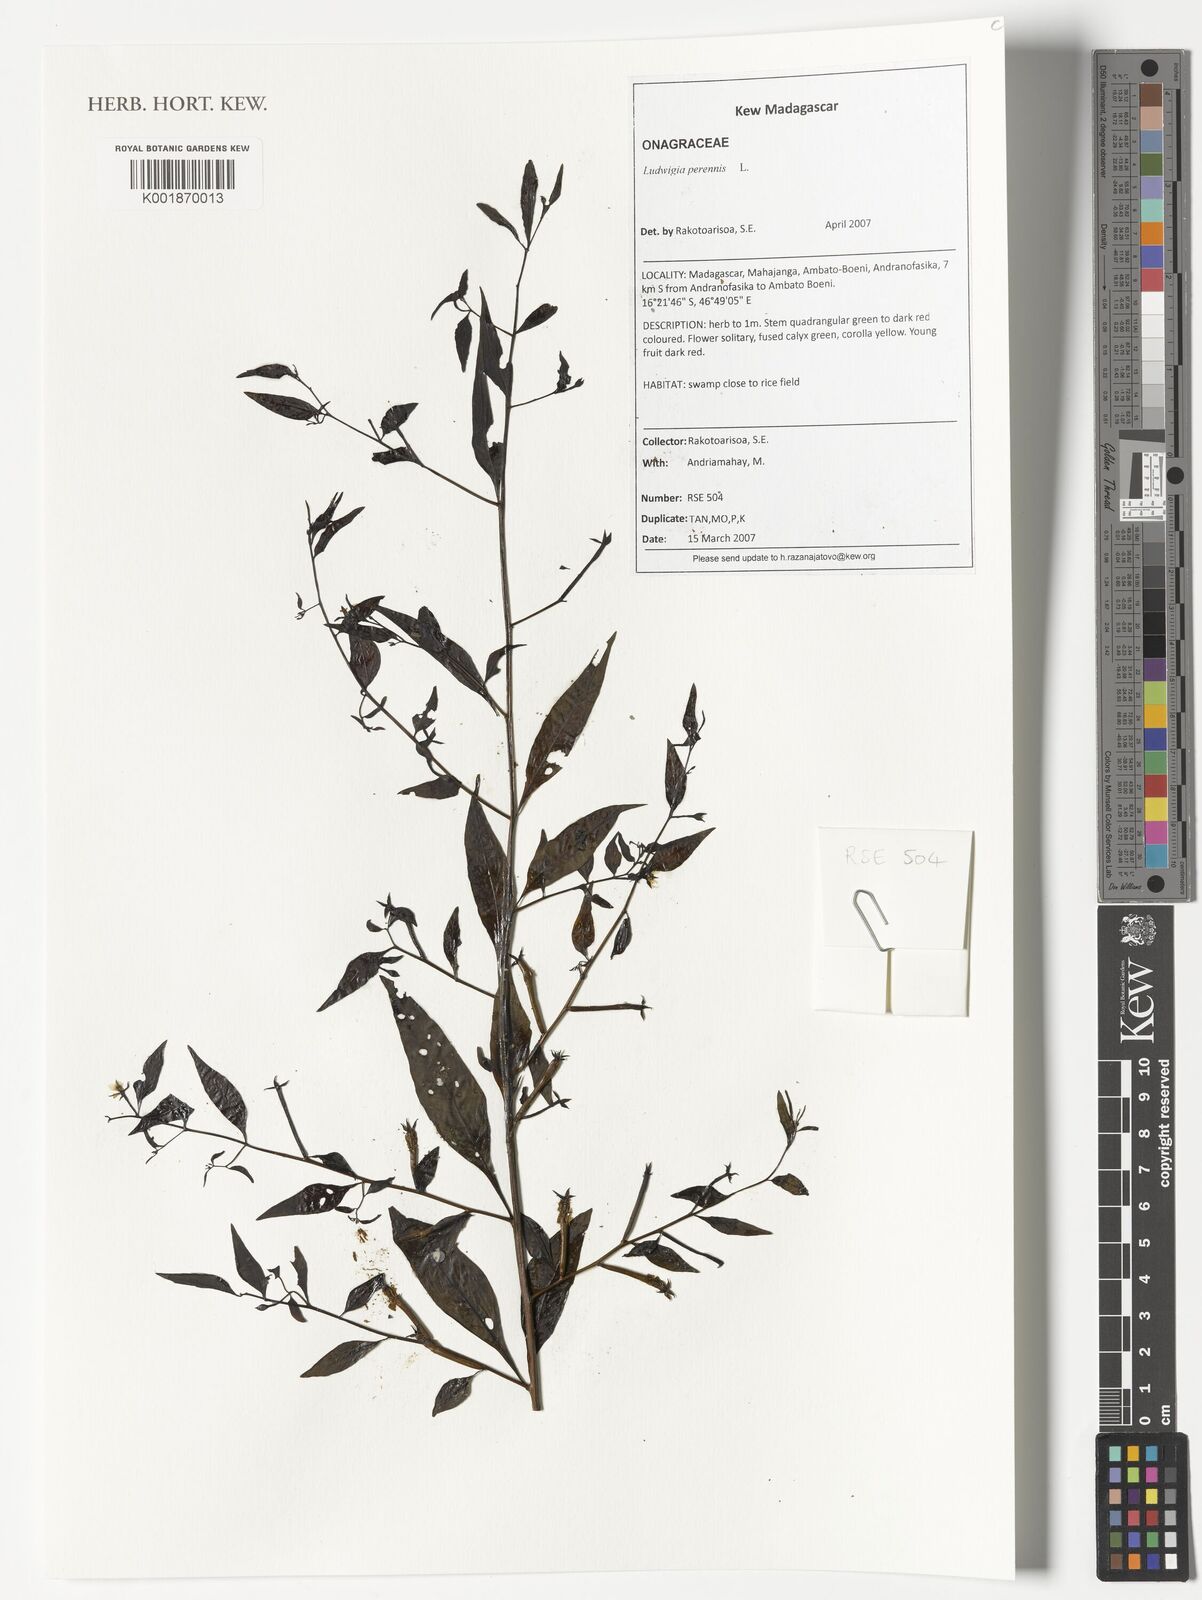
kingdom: Plantae
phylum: Tracheophyta
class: Magnoliopsida
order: Myrtales
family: Onagraceae
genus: Ludwigia
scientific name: Ludwigia perennis
